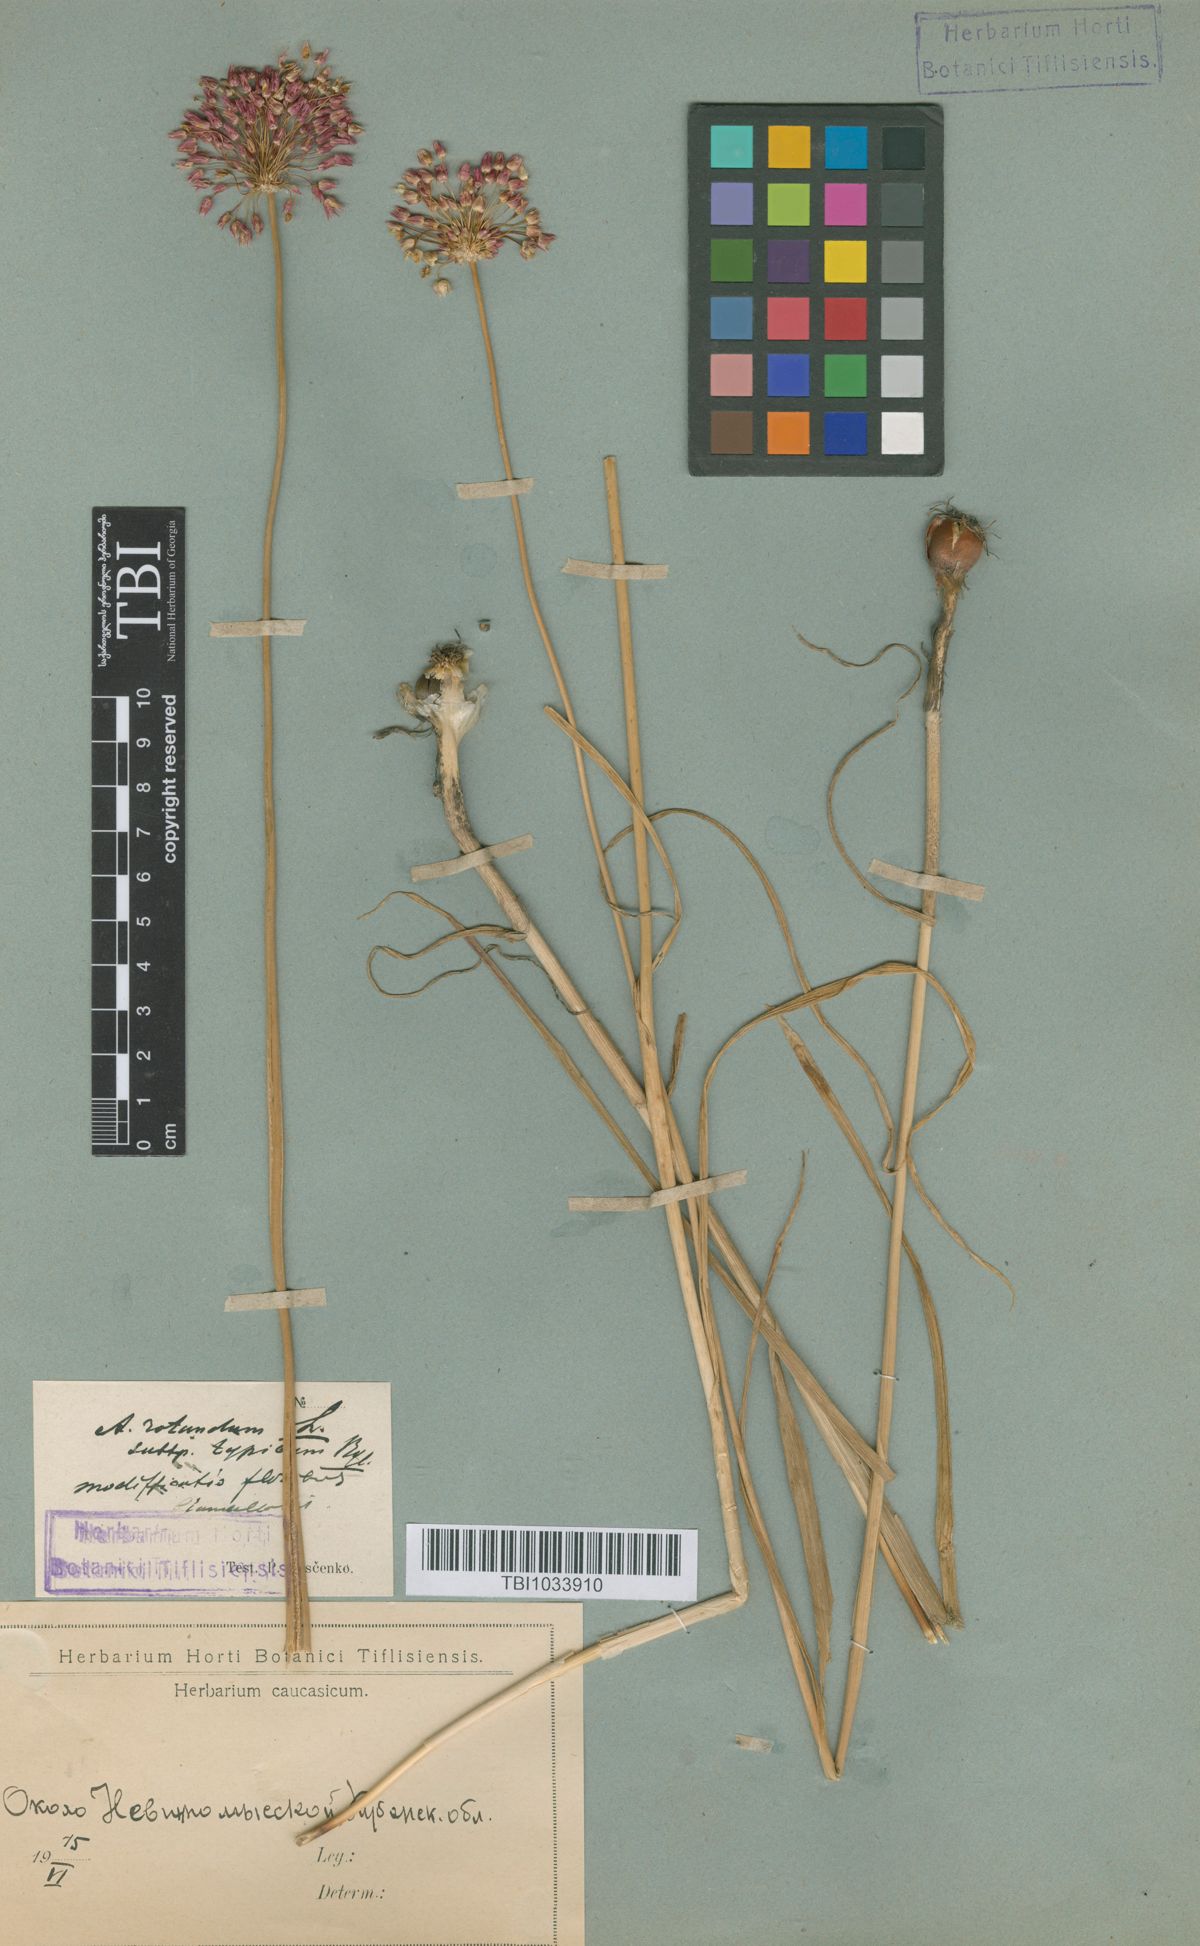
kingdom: Plantae
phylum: Tracheophyta
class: Liliopsida
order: Asparagales
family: Amaryllidaceae
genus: Allium
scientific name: Allium rotundum
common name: Sand leek
